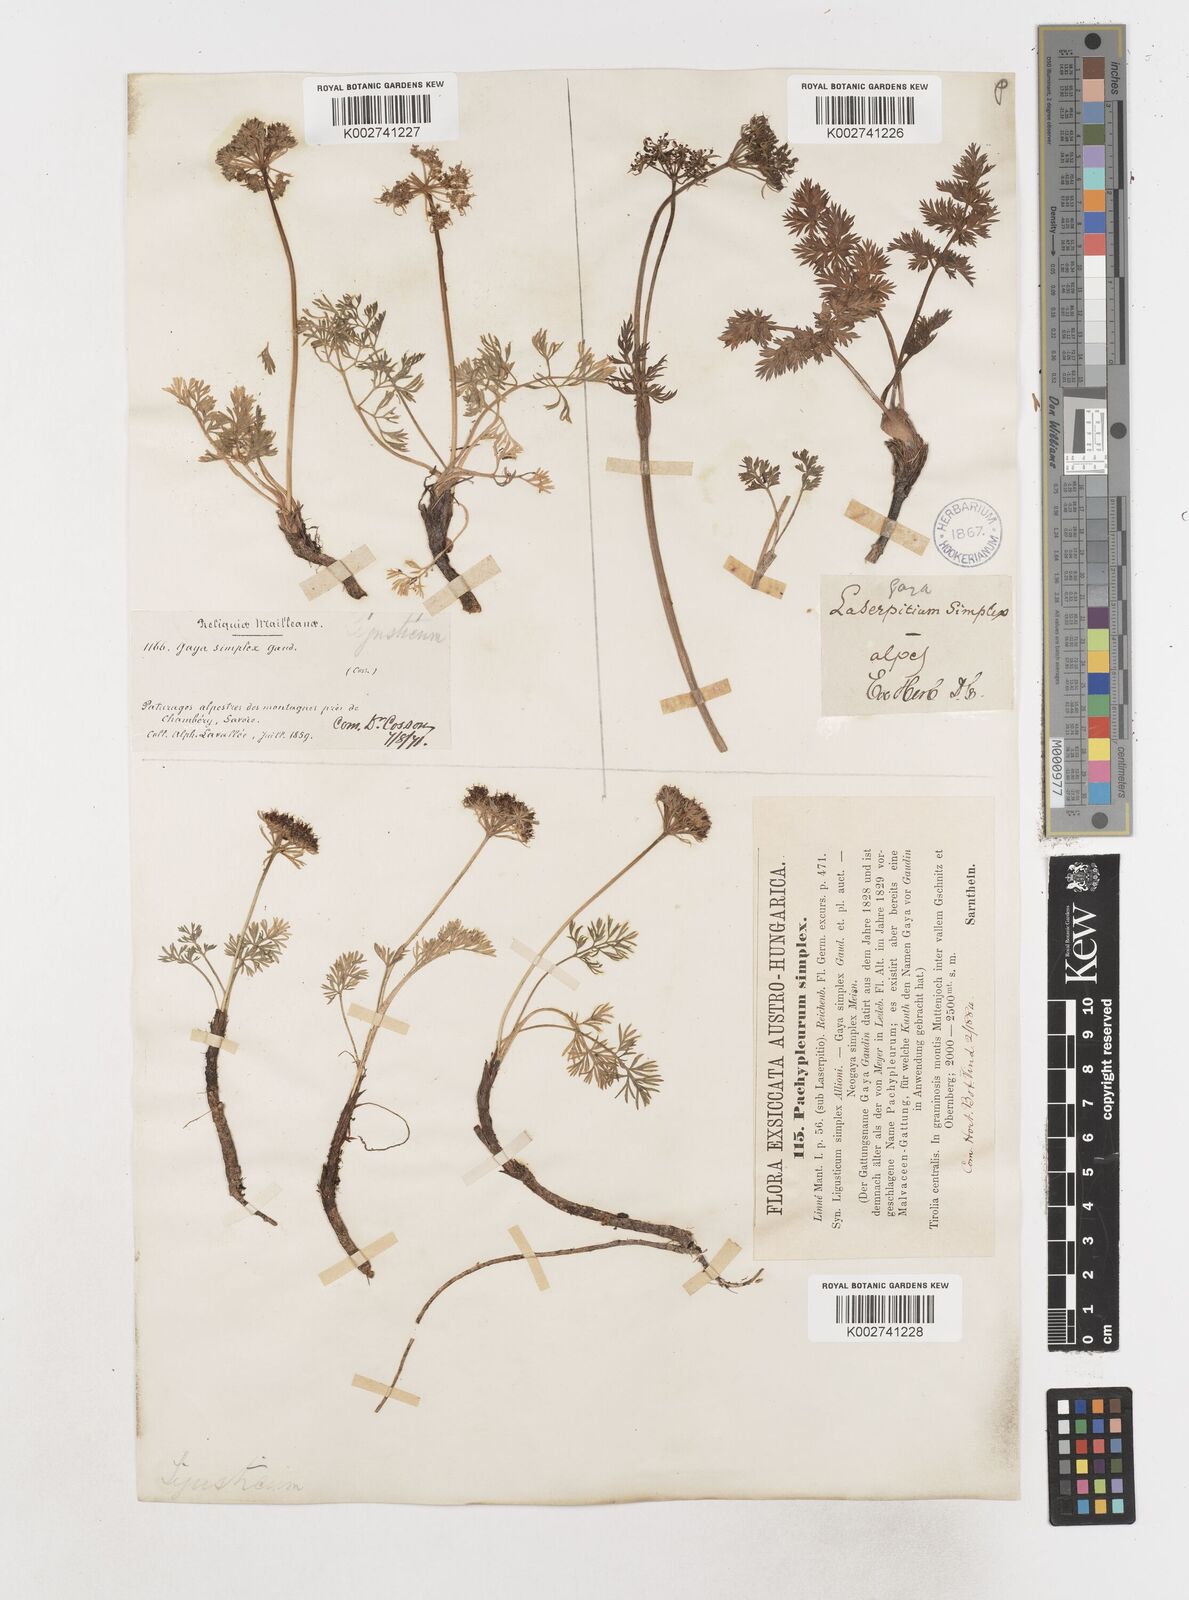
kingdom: Plantae
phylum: Tracheophyta
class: Magnoliopsida
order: Apiales
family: Apiaceae
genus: Pachypleurum
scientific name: Pachypleurum mutellinoides
